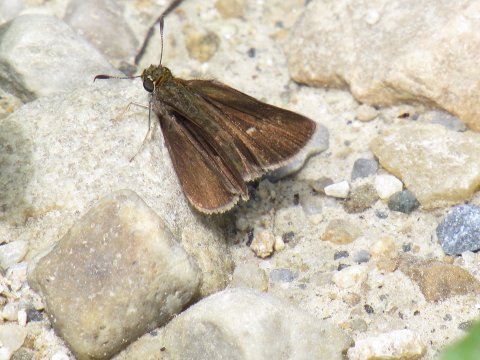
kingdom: Animalia
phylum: Arthropoda
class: Insecta
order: Lepidoptera
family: Hesperiidae
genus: Euphyes
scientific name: Euphyes vestris
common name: Dun Skipper
